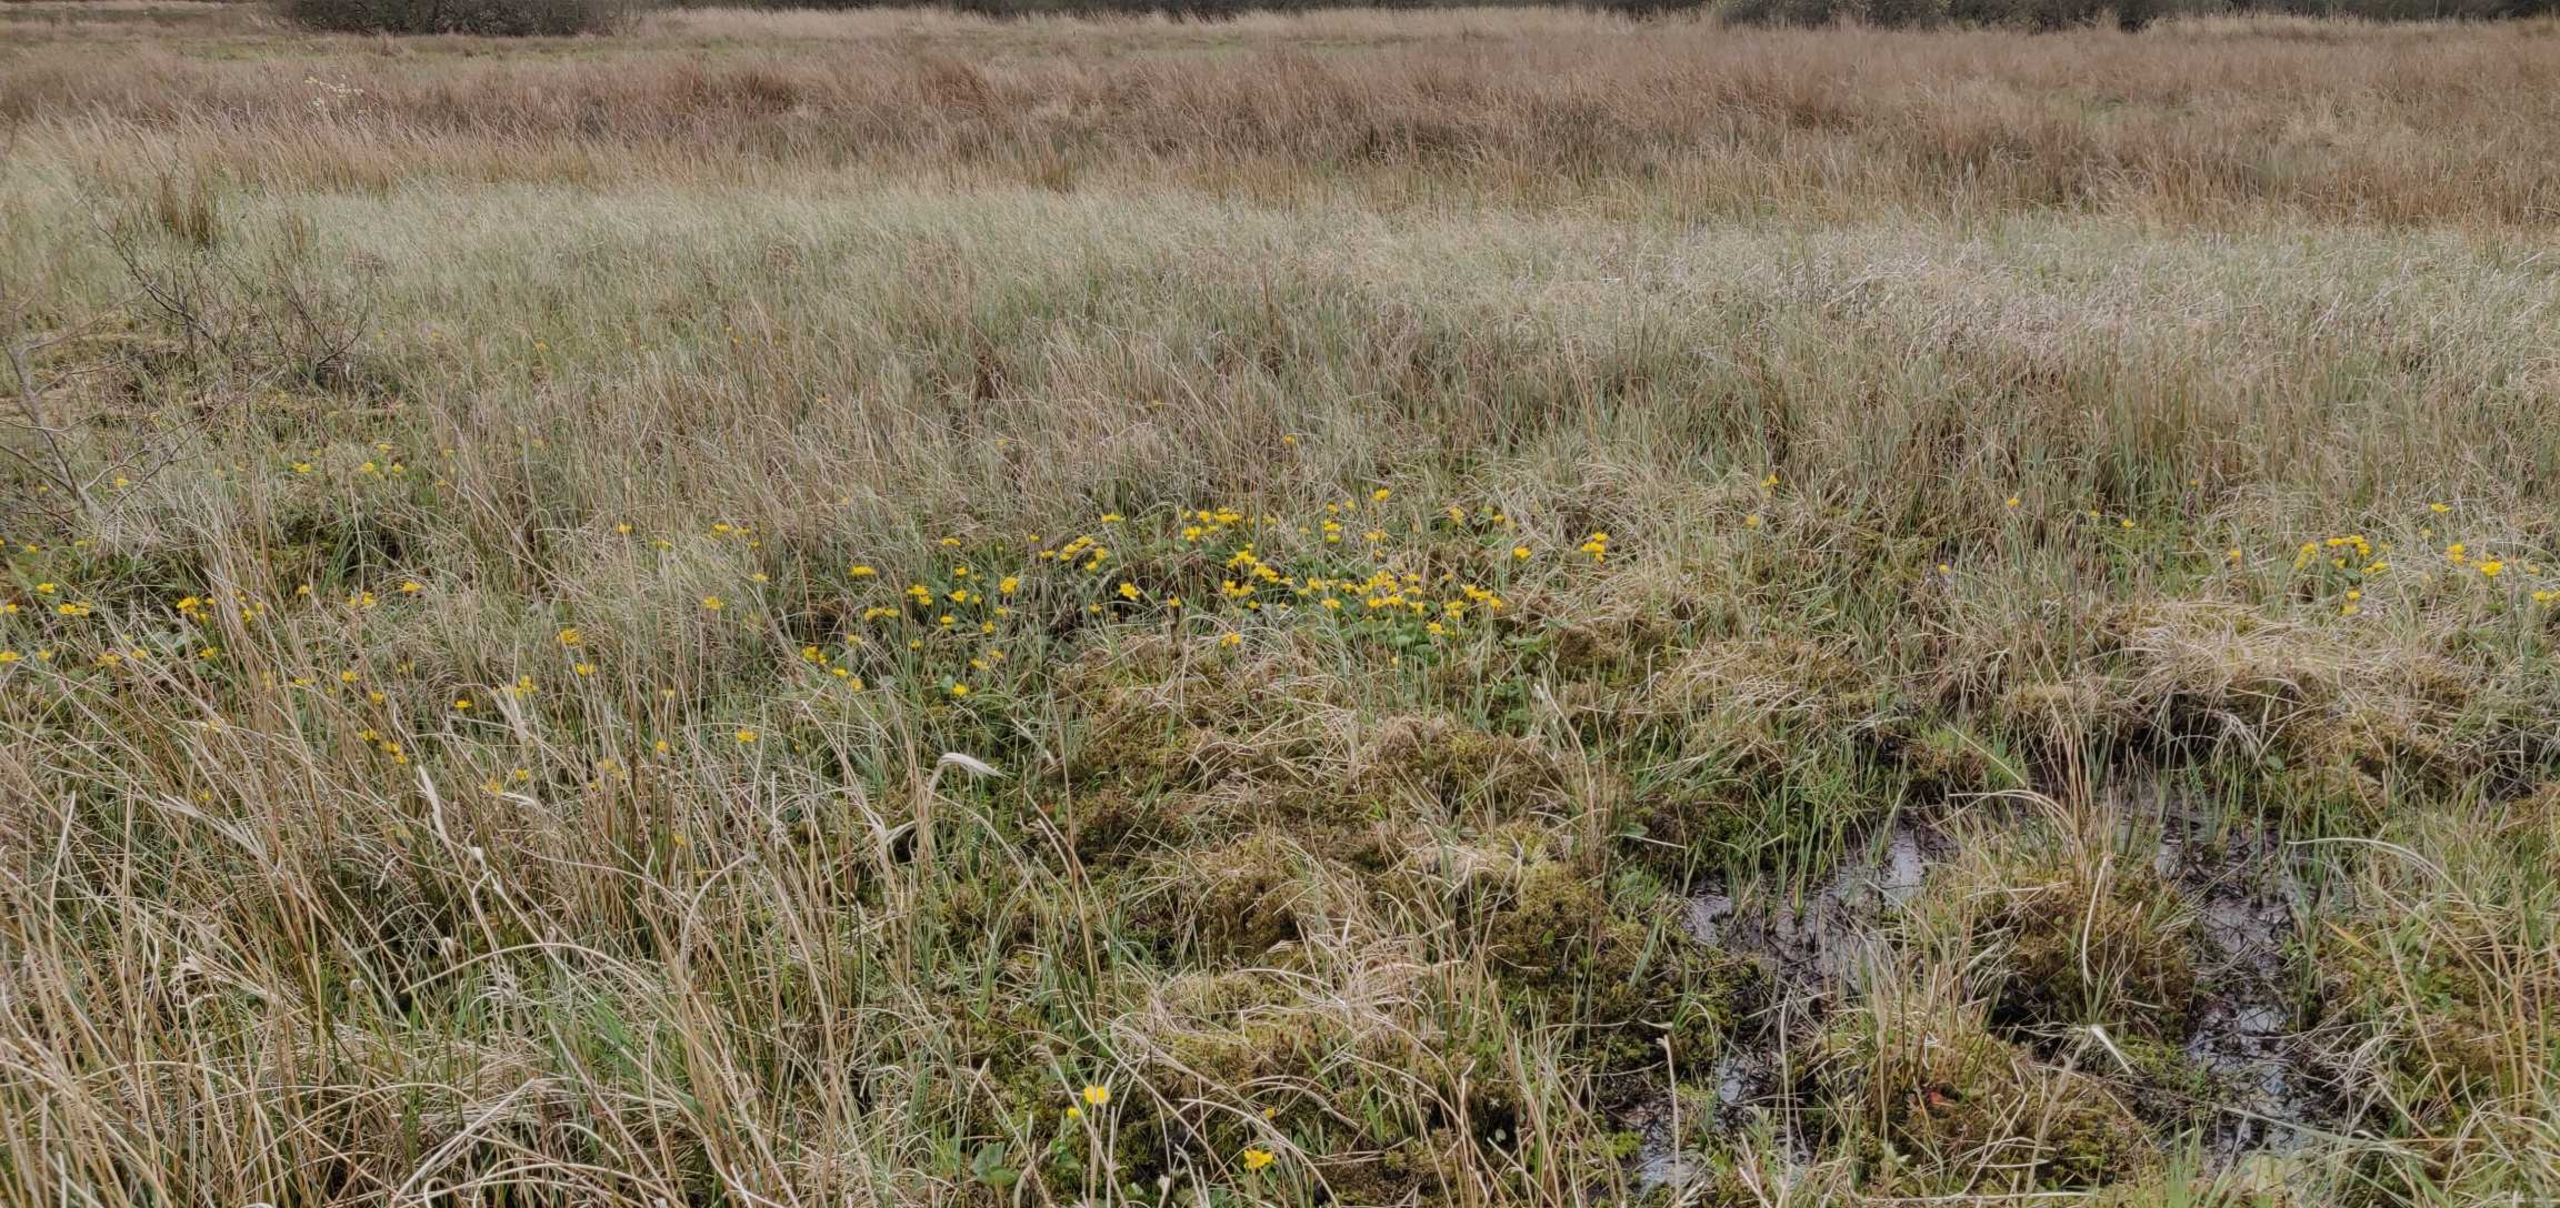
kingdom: Plantae
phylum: Tracheophyta
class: Magnoliopsida
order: Ranunculales
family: Ranunculaceae
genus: Caltha
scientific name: Caltha palustris
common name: Eng-kabbeleje
